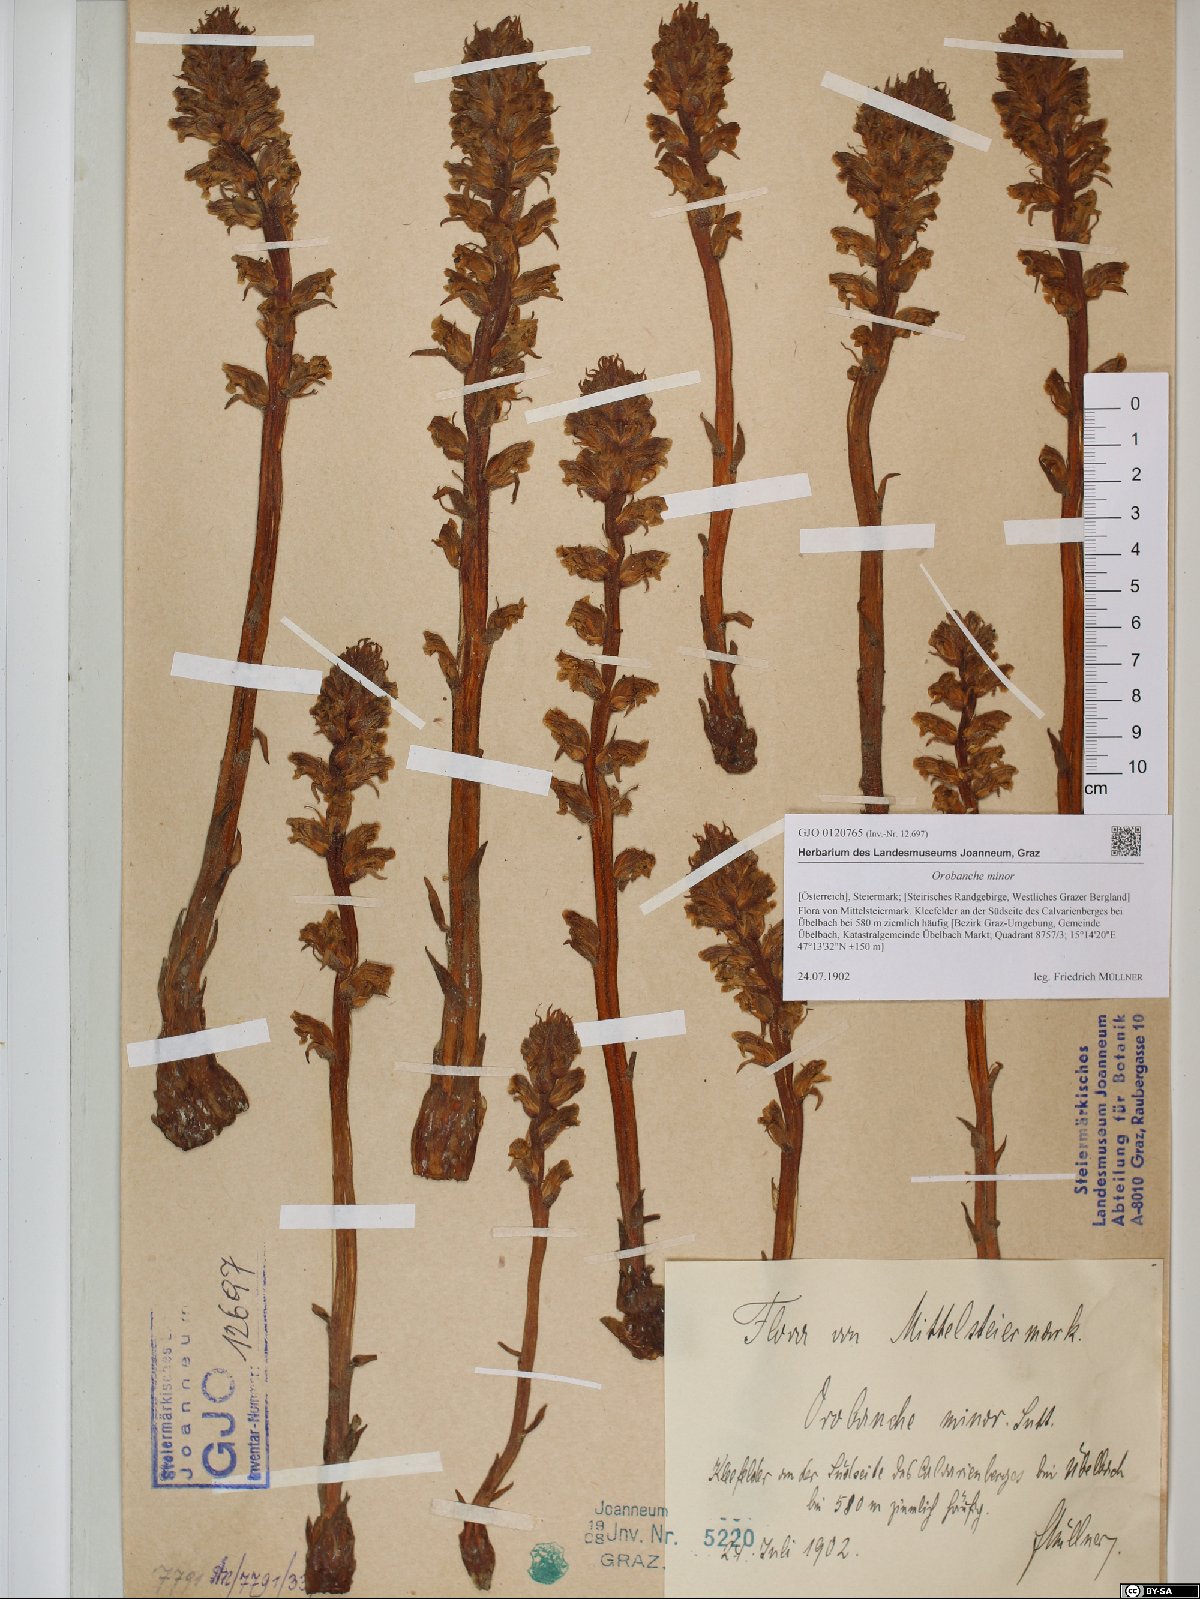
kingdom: Plantae
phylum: Tracheophyta
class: Magnoliopsida
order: Lamiales
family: Orobanchaceae
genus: Orobanche
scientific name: Orobanche minor
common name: Common broomrape
